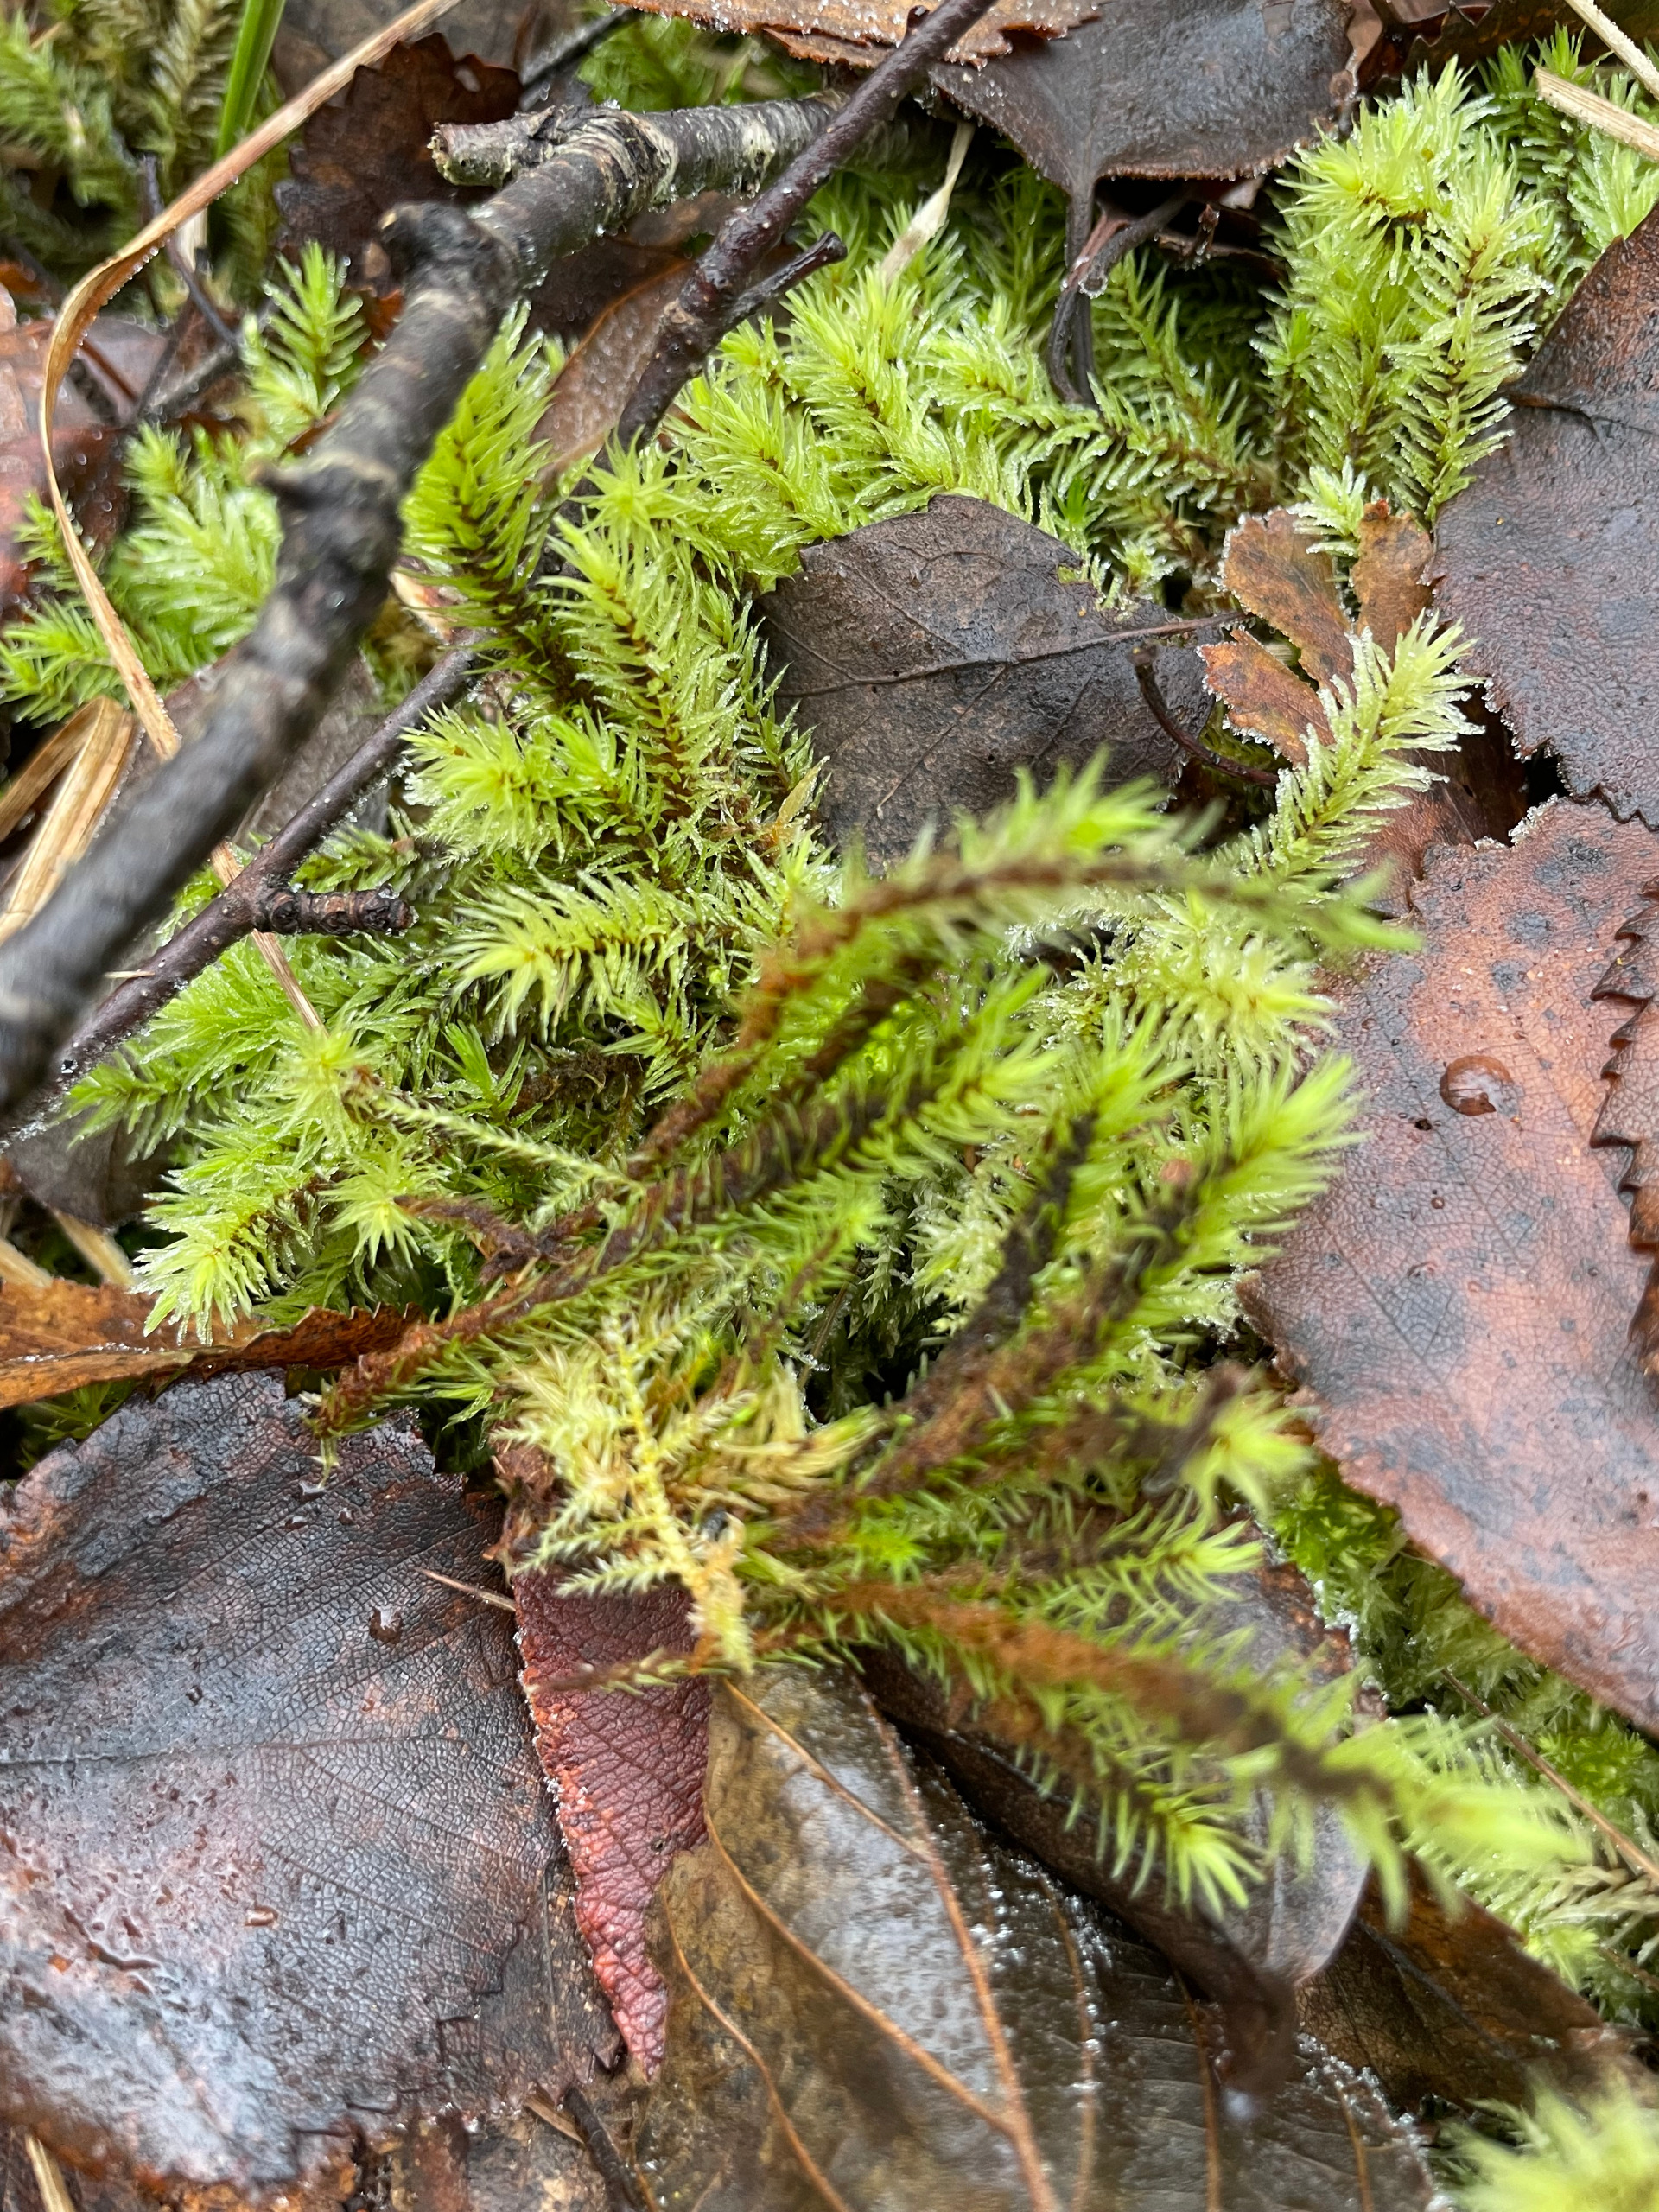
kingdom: Plantae
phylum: Bryophyta
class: Bryopsida
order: Aulacomniales
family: Aulacomniaceae
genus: Aulacomnium
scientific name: Aulacomnium palustre
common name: Almindelig filtmos
